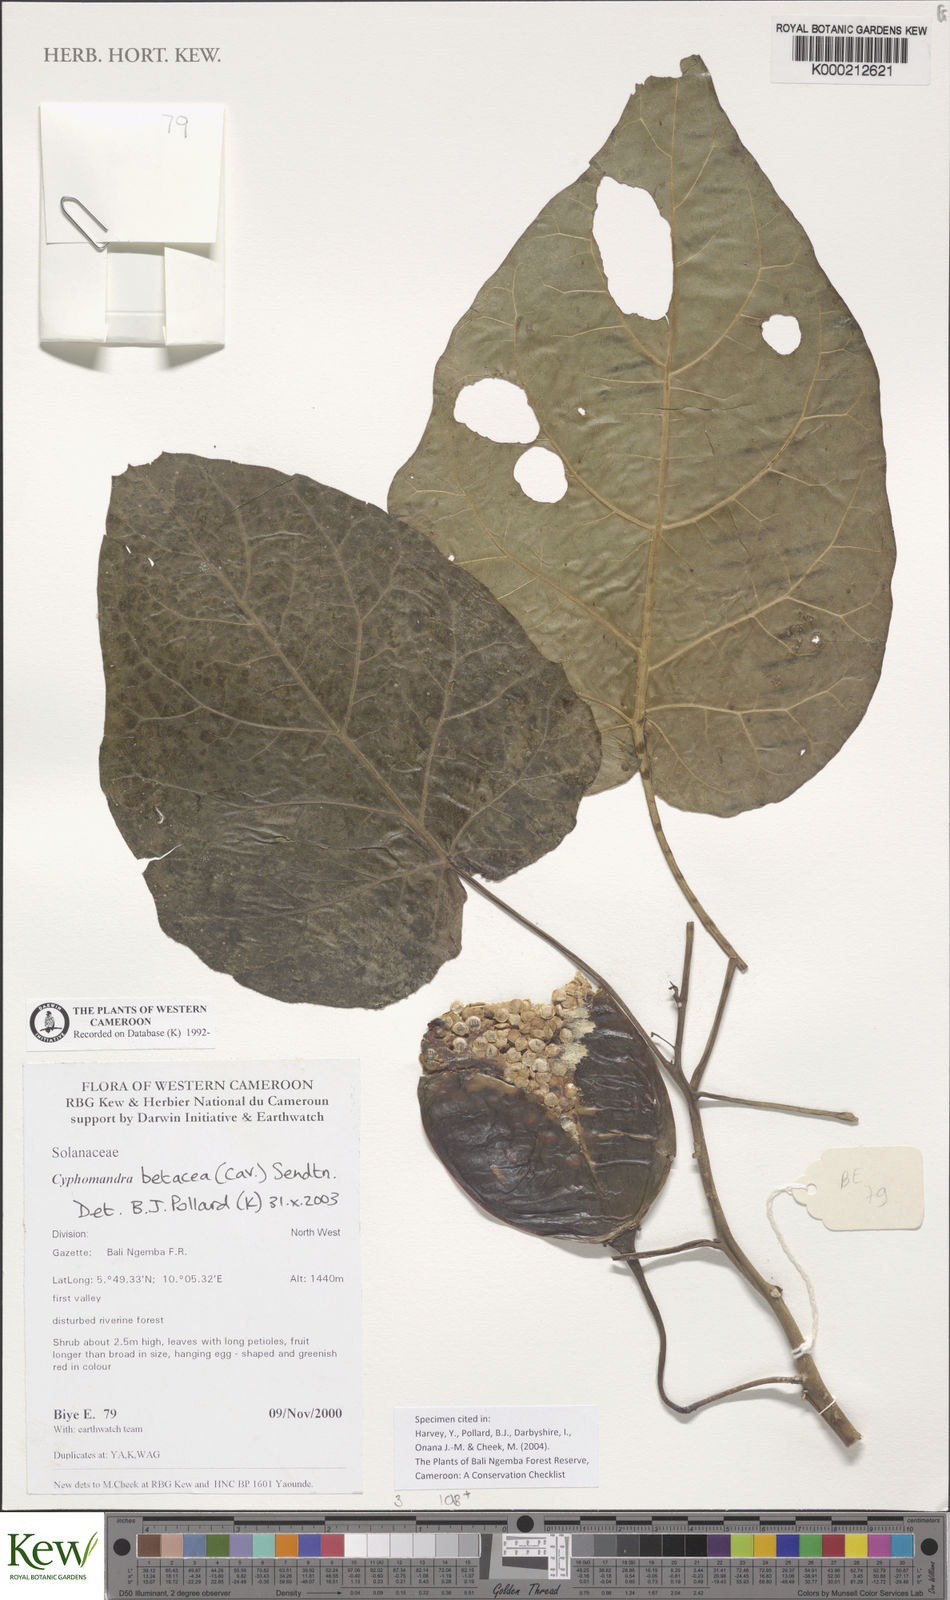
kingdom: Plantae
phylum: Tracheophyta
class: Magnoliopsida
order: Solanales
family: Solanaceae
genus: Solanum
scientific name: Solanum betaceum
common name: Tamarillo
